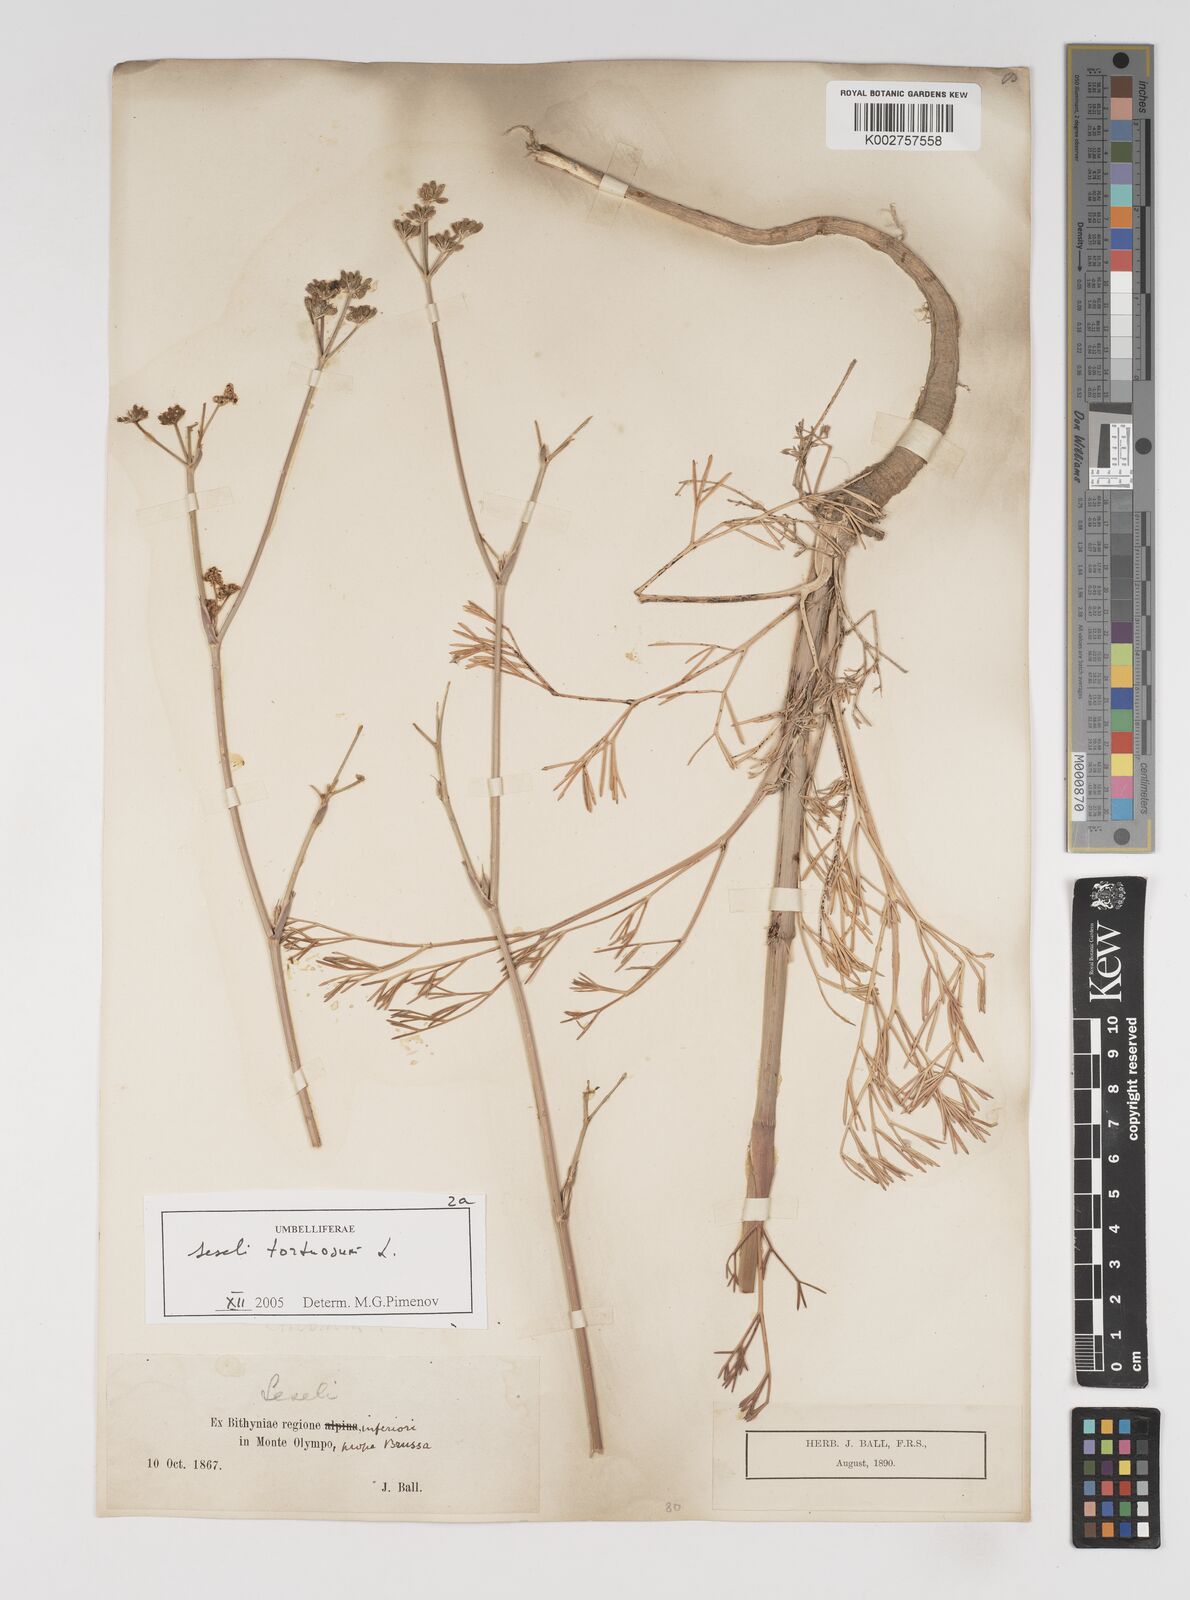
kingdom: Plantae
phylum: Tracheophyta
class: Magnoliopsida
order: Apiales
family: Apiaceae
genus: Seseli
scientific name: Seseli tortuosum
